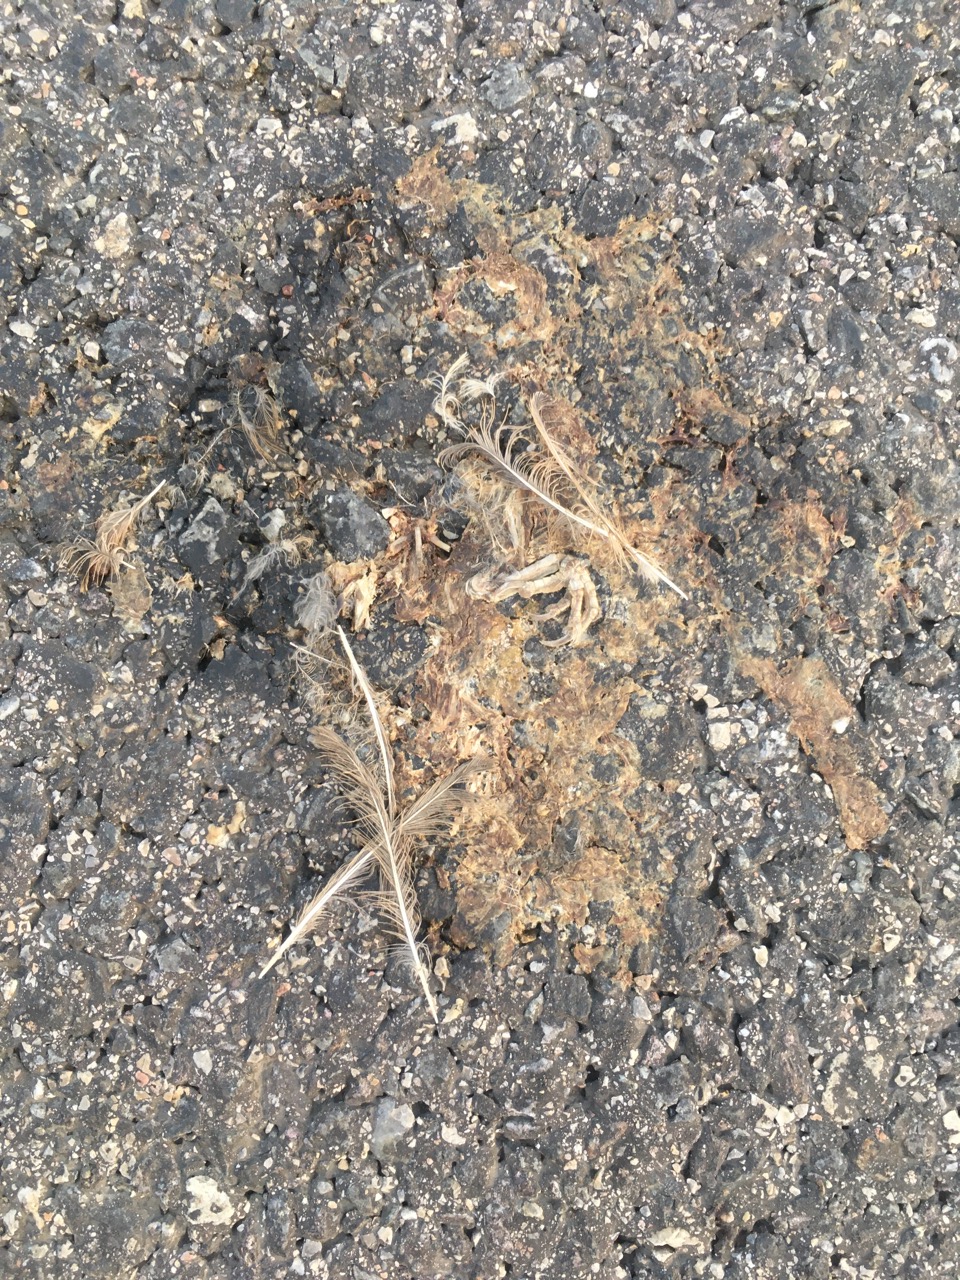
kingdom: Animalia
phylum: Chordata
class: Aves
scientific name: Aves
